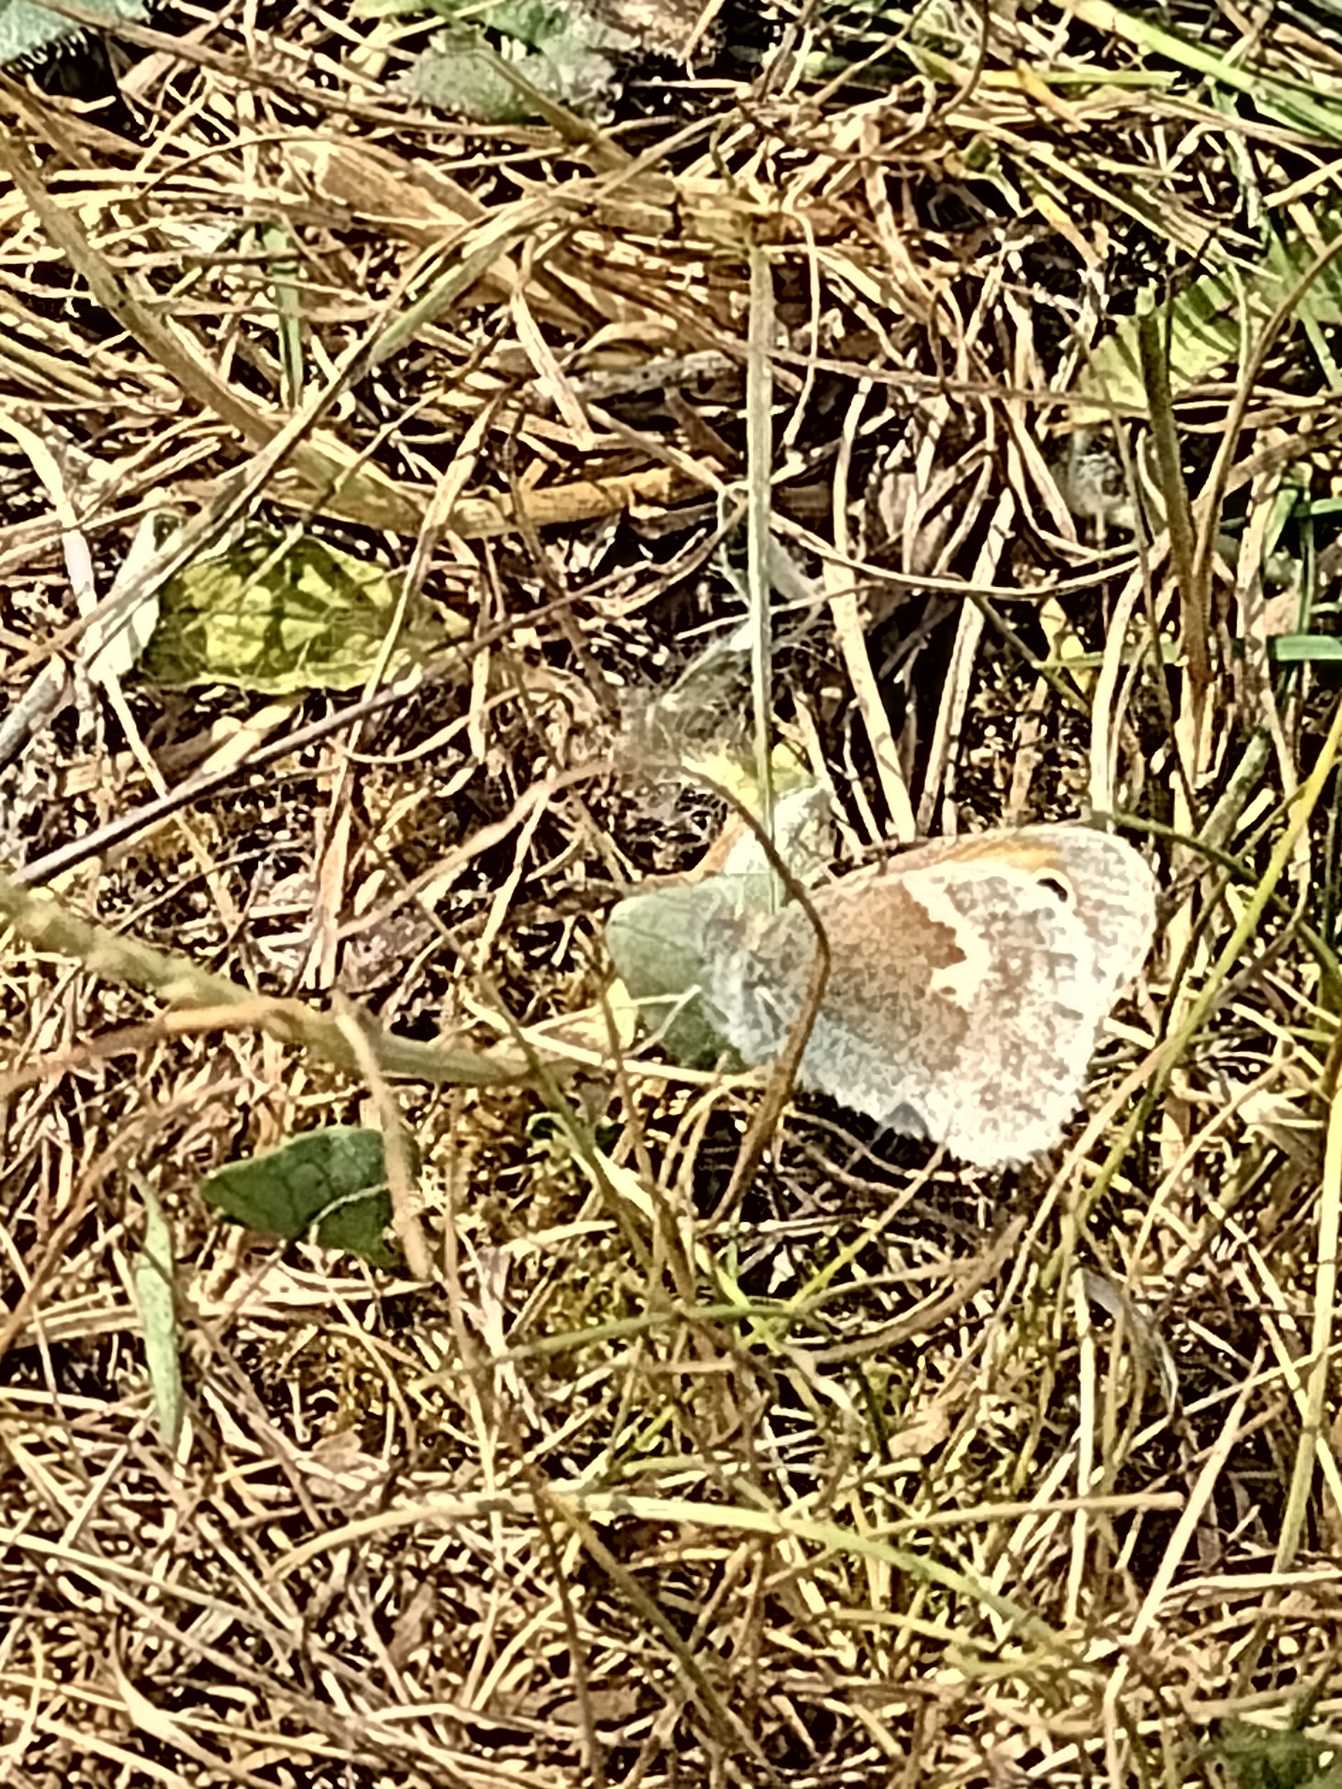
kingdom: Animalia
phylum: Arthropoda
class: Insecta
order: Lepidoptera
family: Nymphalidae
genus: Coenonympha
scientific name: Coenonympha pamphilus
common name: Okkergul randøje
